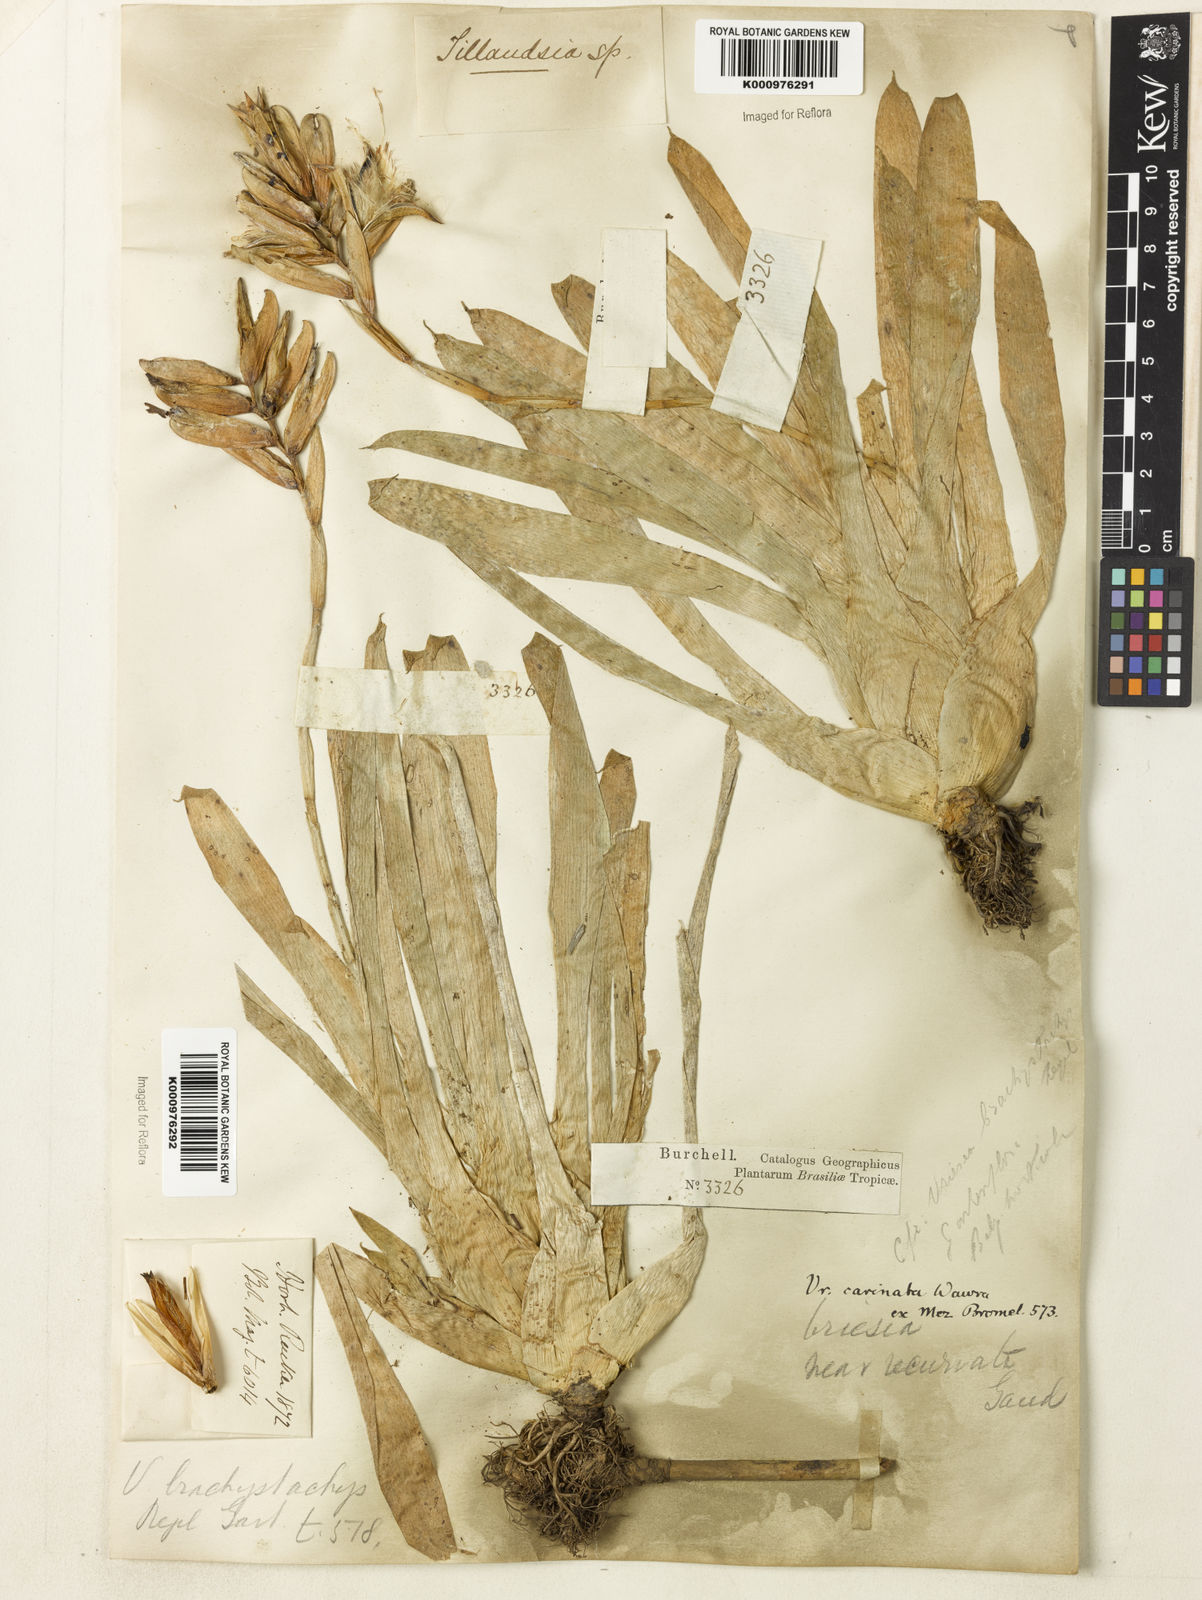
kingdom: Plantae
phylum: Tracheophyta
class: Liliopsida
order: Poales
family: Bromeliaceae
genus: Vriesea
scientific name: Vriesea carinata
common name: Lobster-claws
